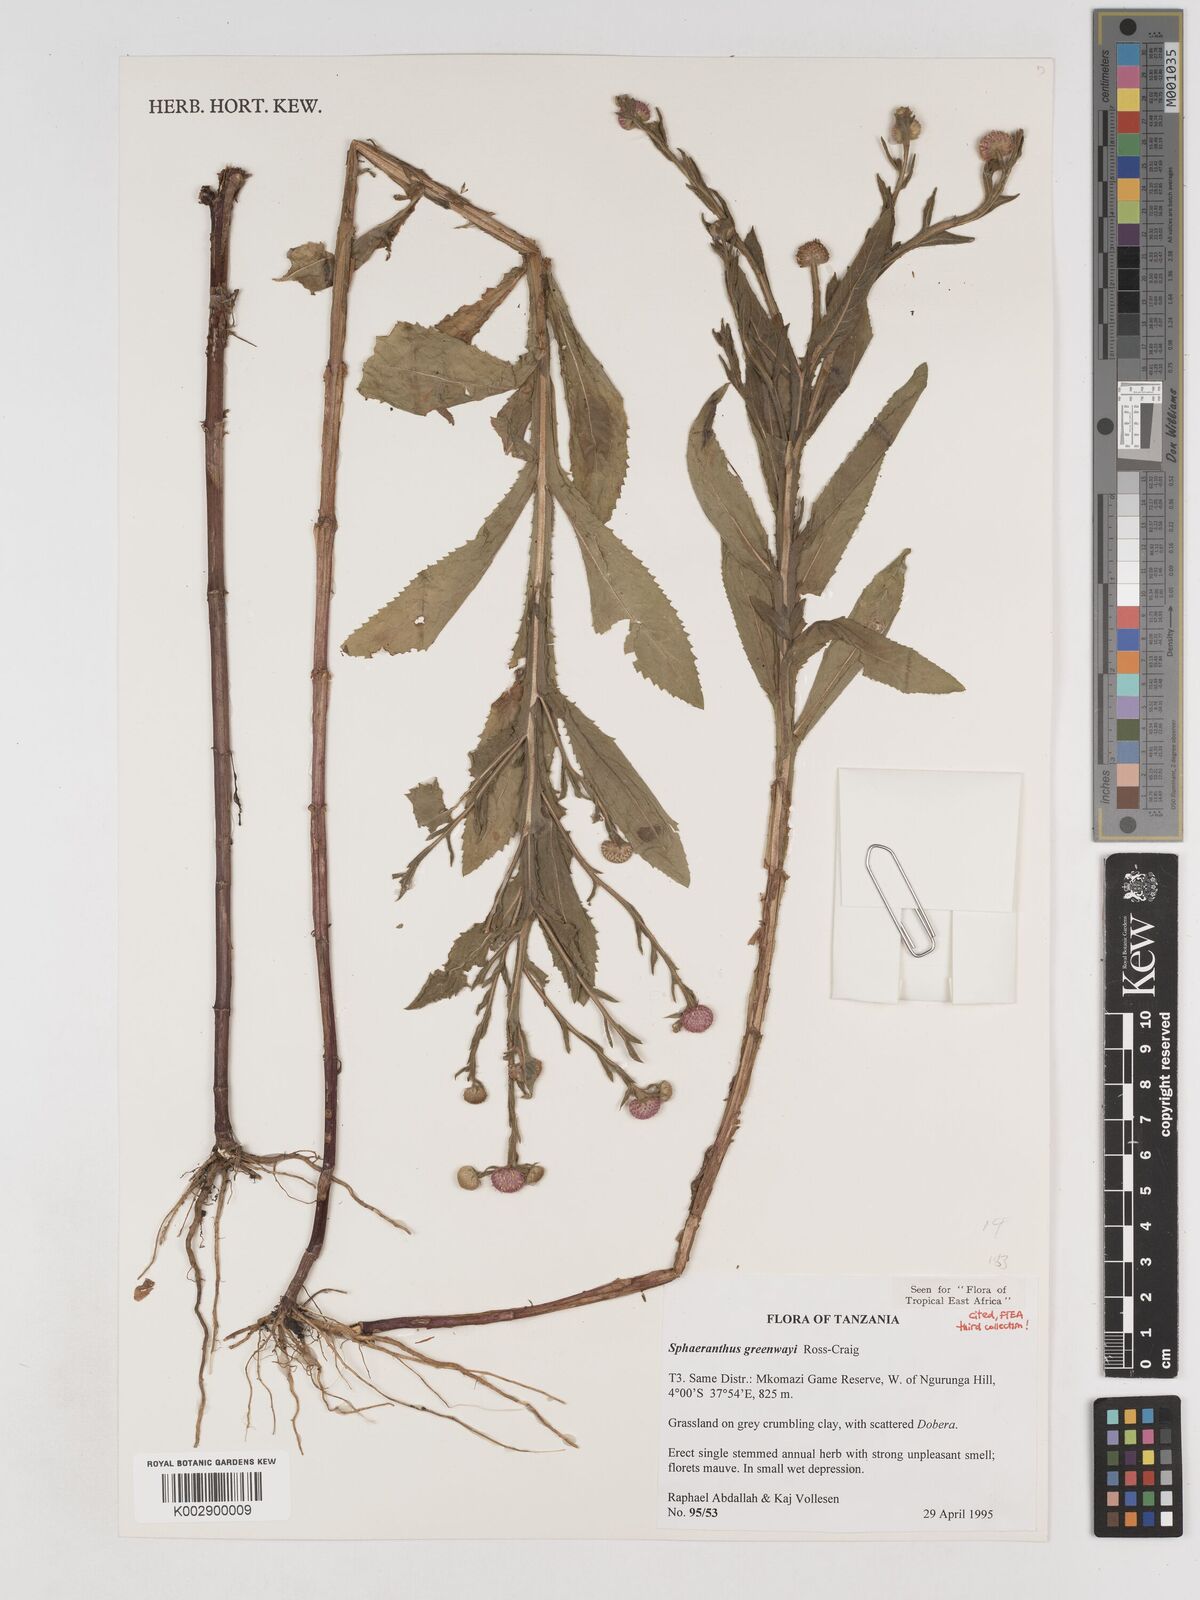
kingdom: Plantae
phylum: Tracheophyta
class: Magnoliopsida
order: Asterales
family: Asteraceae
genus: Sphaeranthus
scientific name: Sphaeranthus greenwayi
